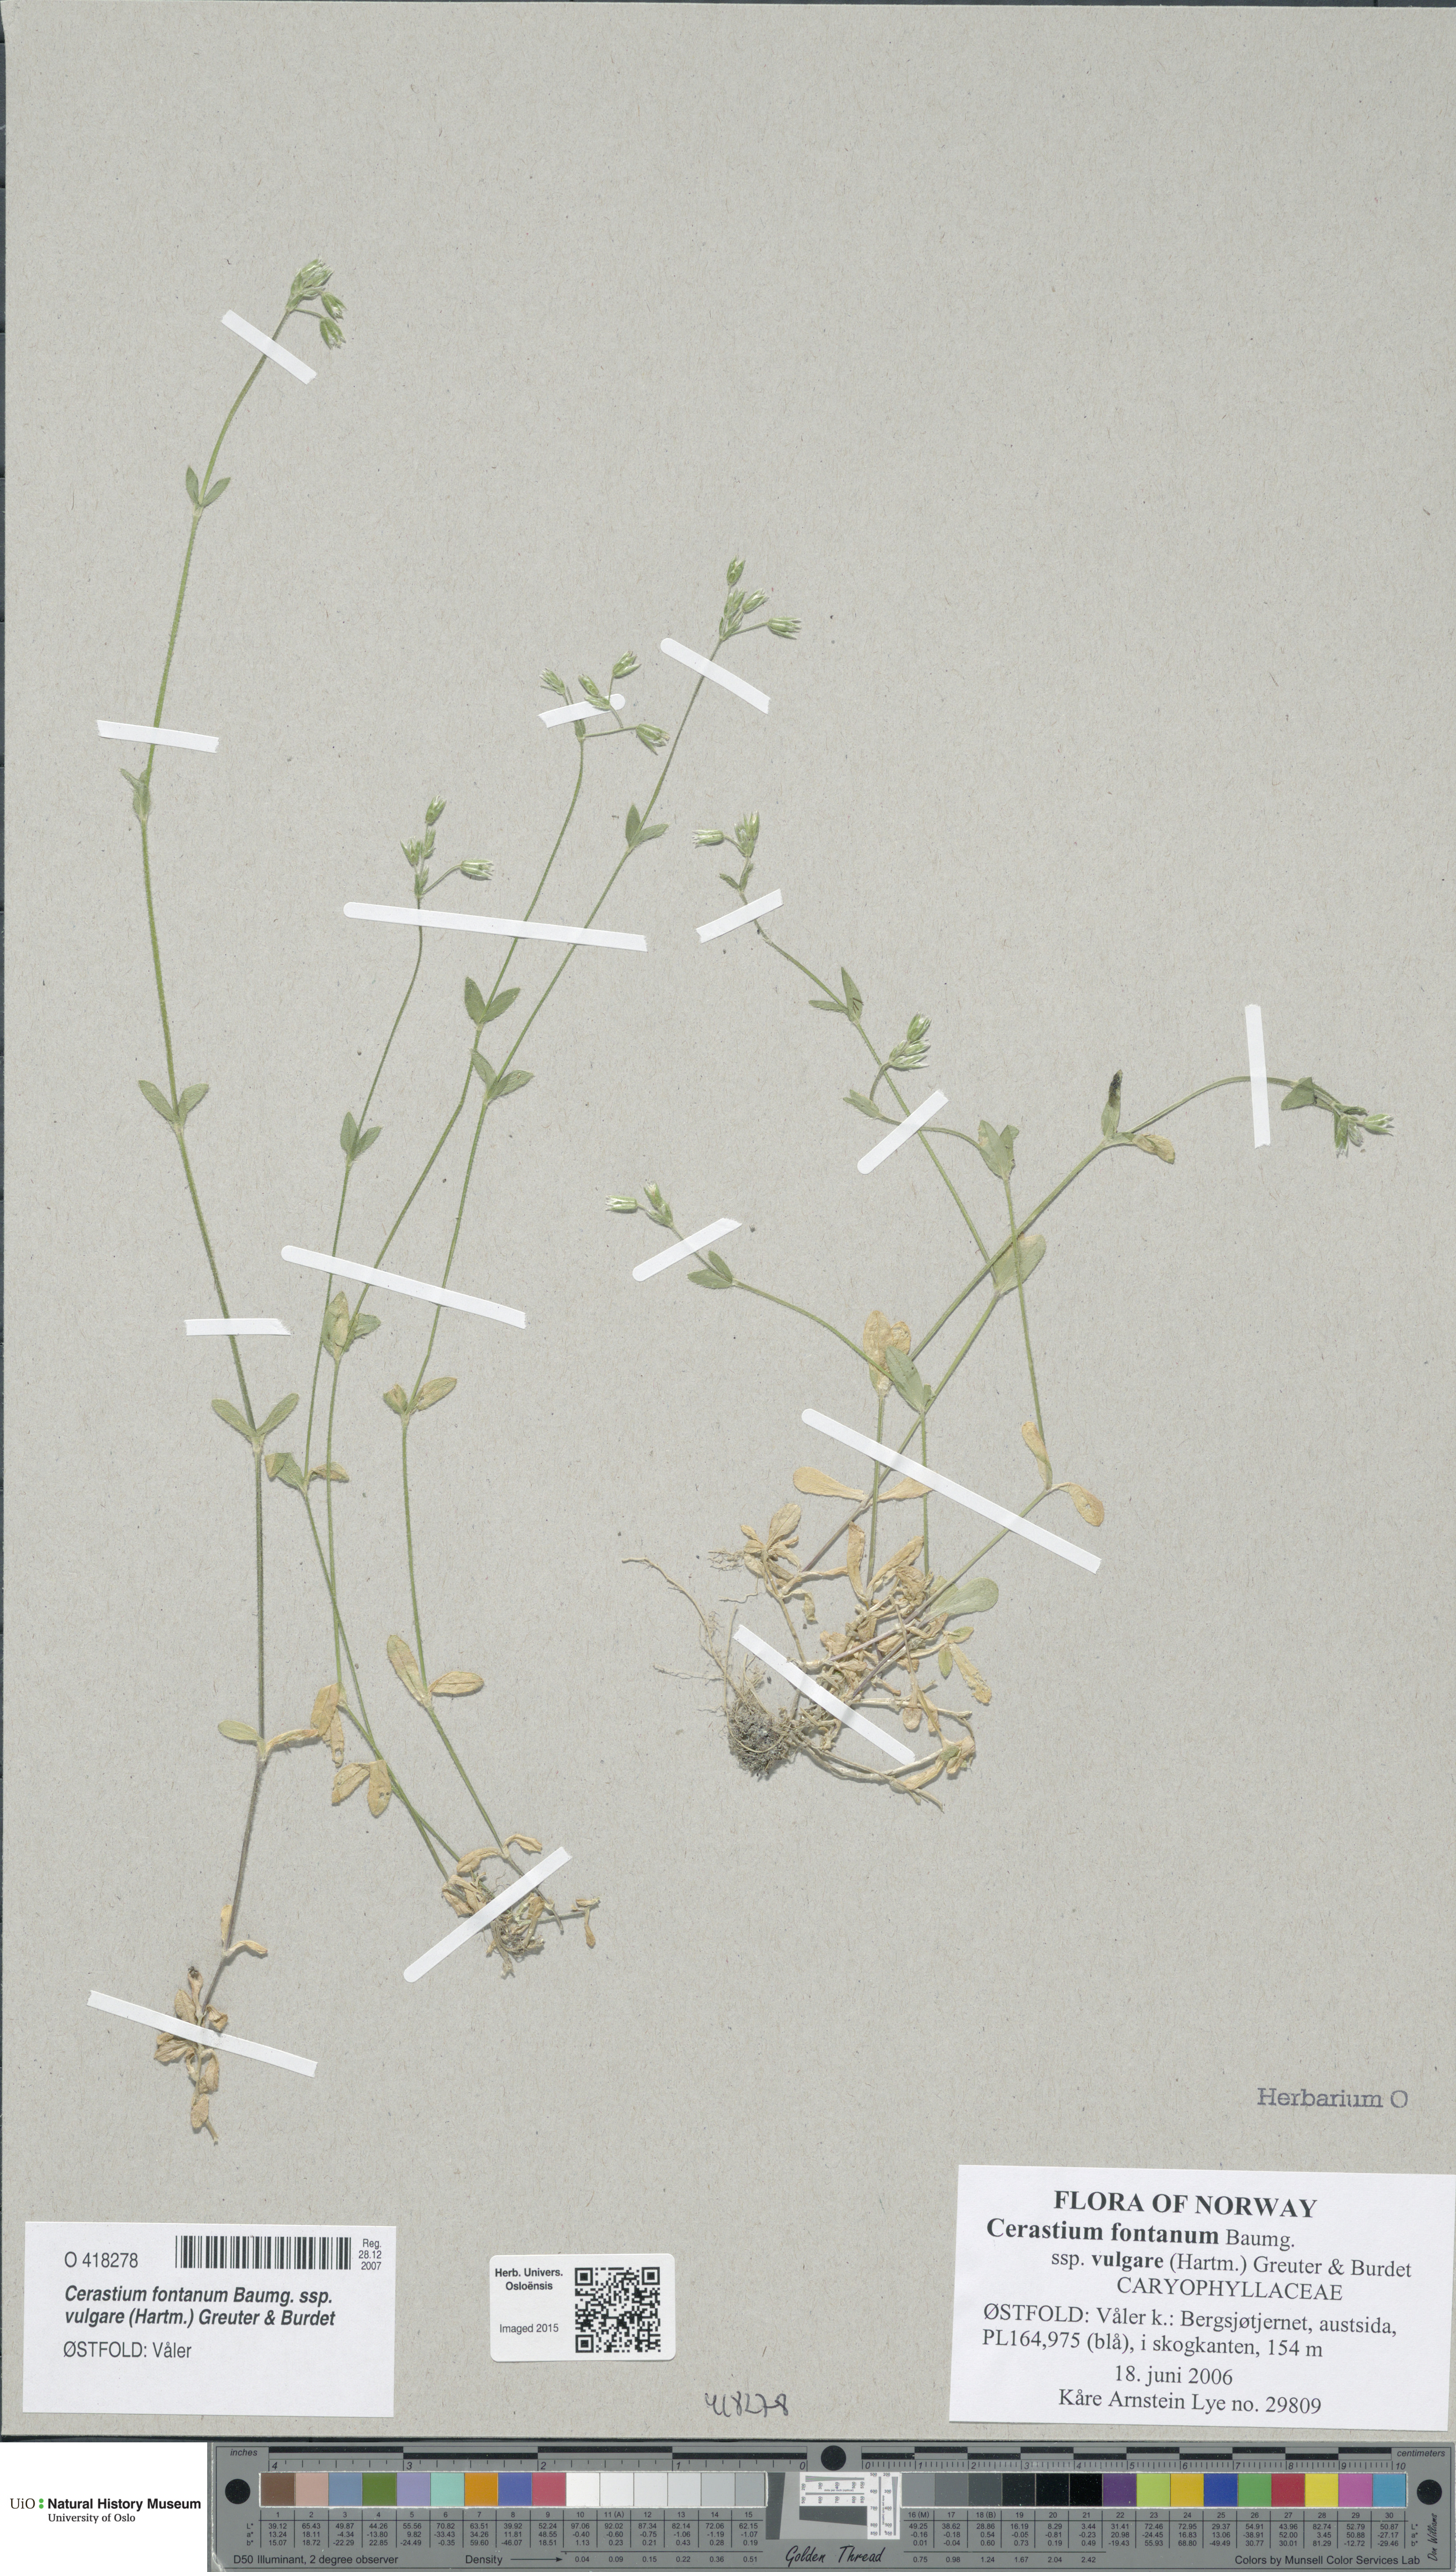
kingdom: Plantae
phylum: Tracheophyta
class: Magnoliopsida
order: Caryophyllales
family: Caryophyllaceae
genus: Cerastium
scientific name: Cerastium holosteoides
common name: Big chickweed
